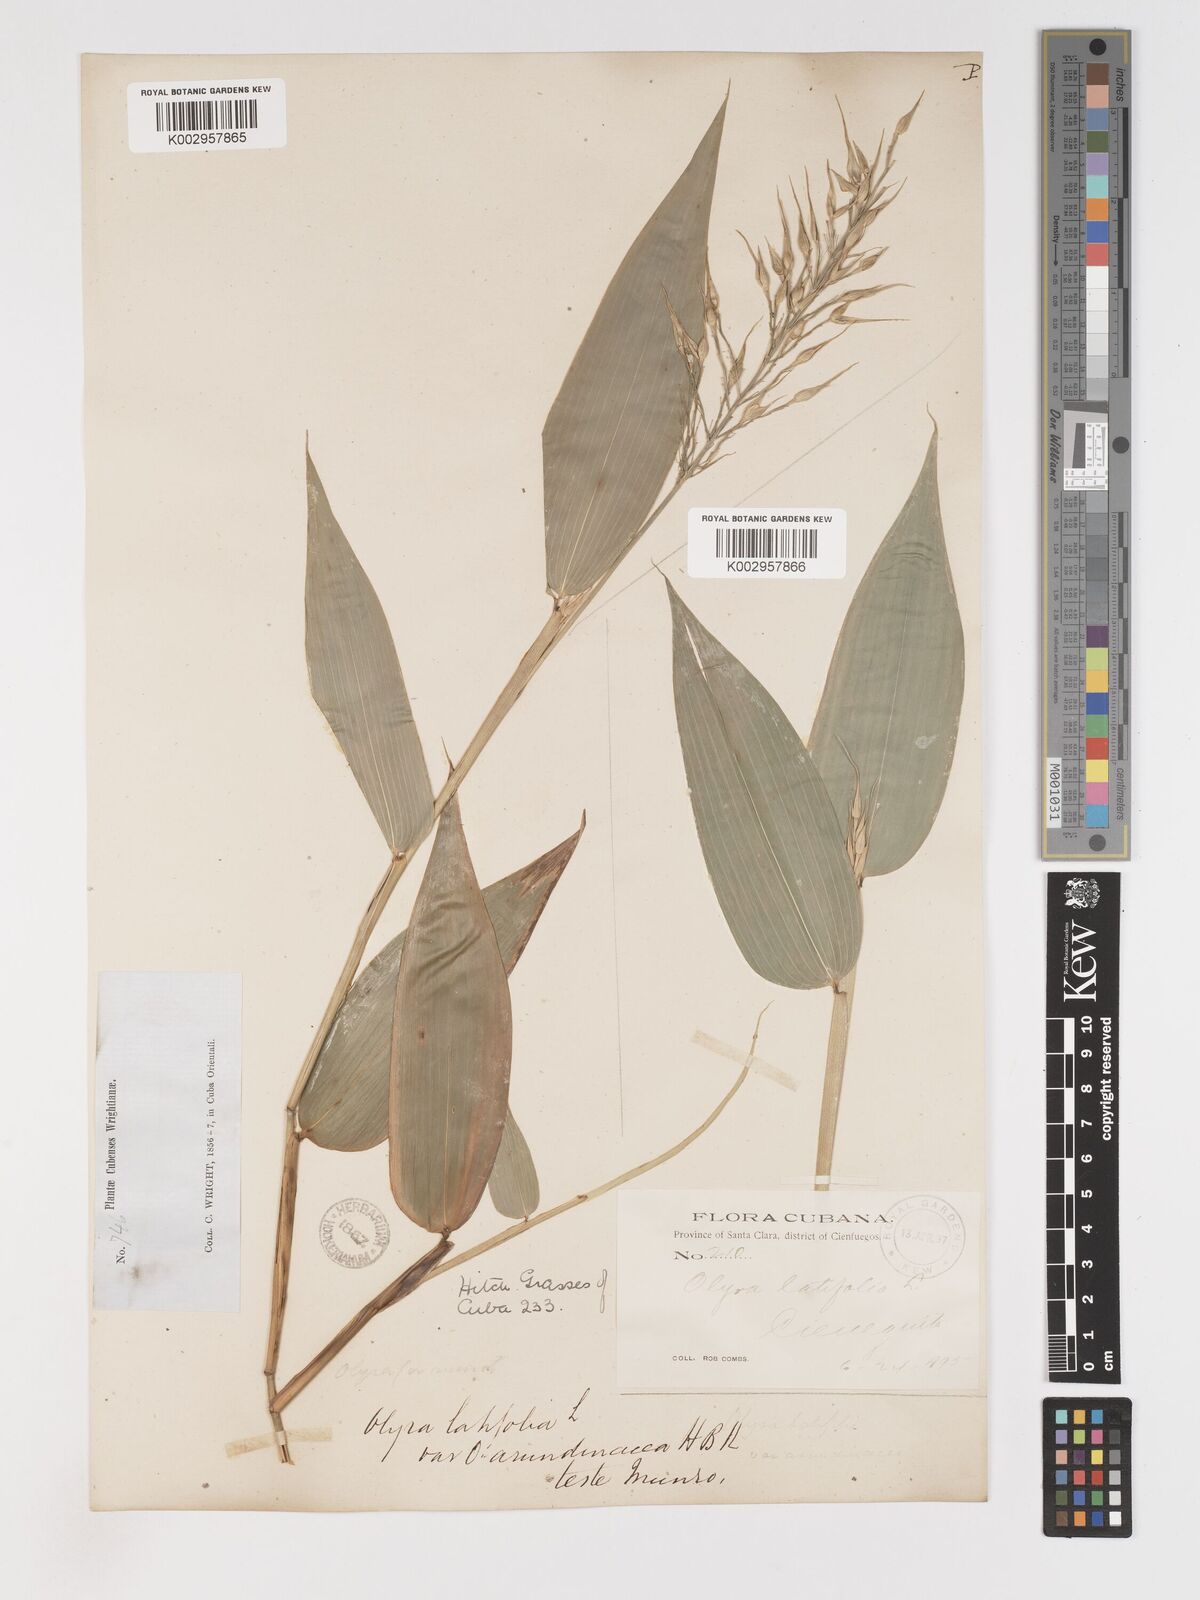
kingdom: Plantae
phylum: Tracheophyta
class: Liliopsida
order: Poales
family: Poaceae
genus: Olyra
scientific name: Olyra latifolia
